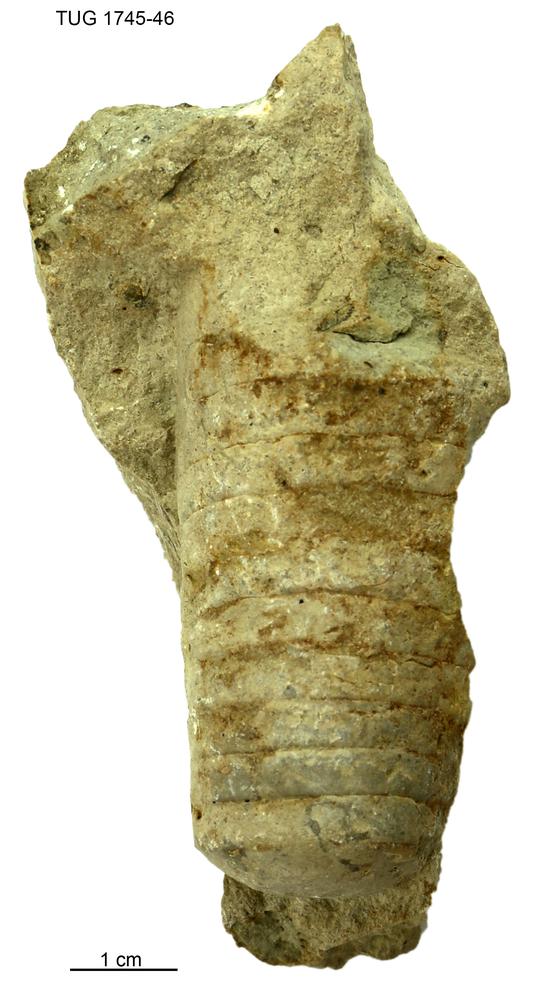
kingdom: Animalia
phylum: Mollusca
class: Cephalopoda
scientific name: Cephalopoda
